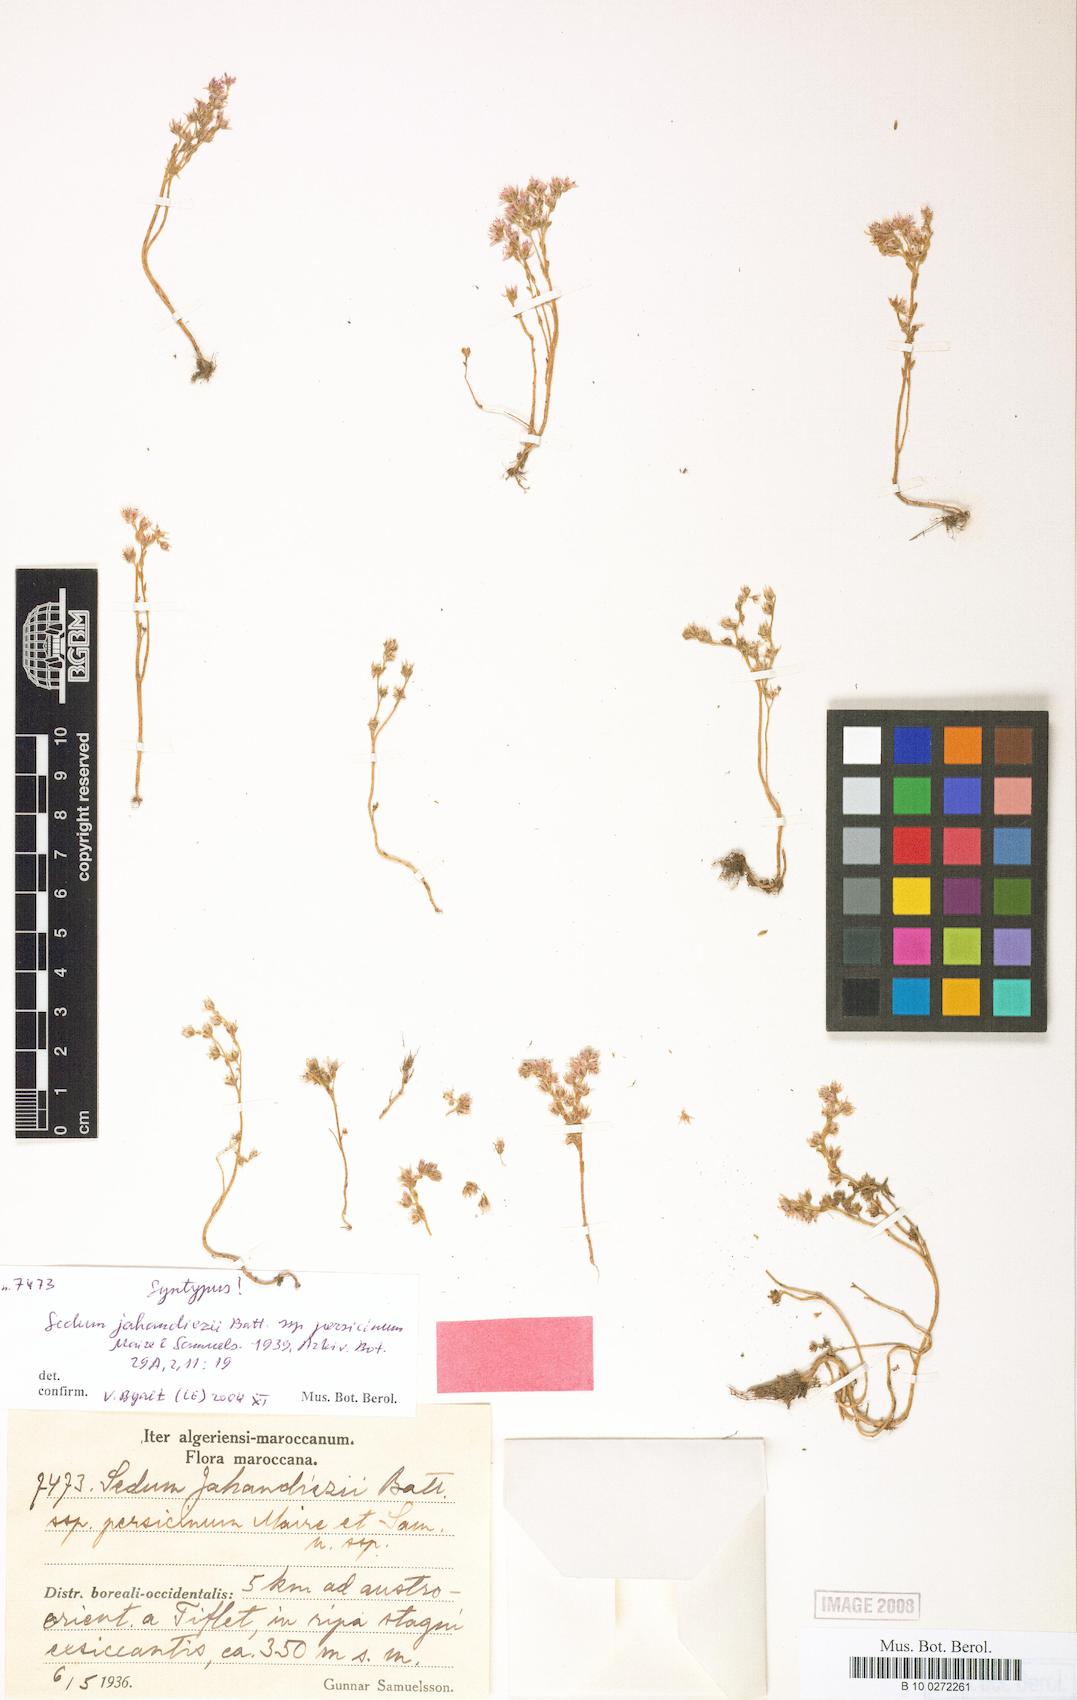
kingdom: Plantae
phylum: Tracheophyta
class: Magnoliopsida
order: Saxifragales
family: Crassulaceae
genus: Sedum
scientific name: Sedum jahandiezii
